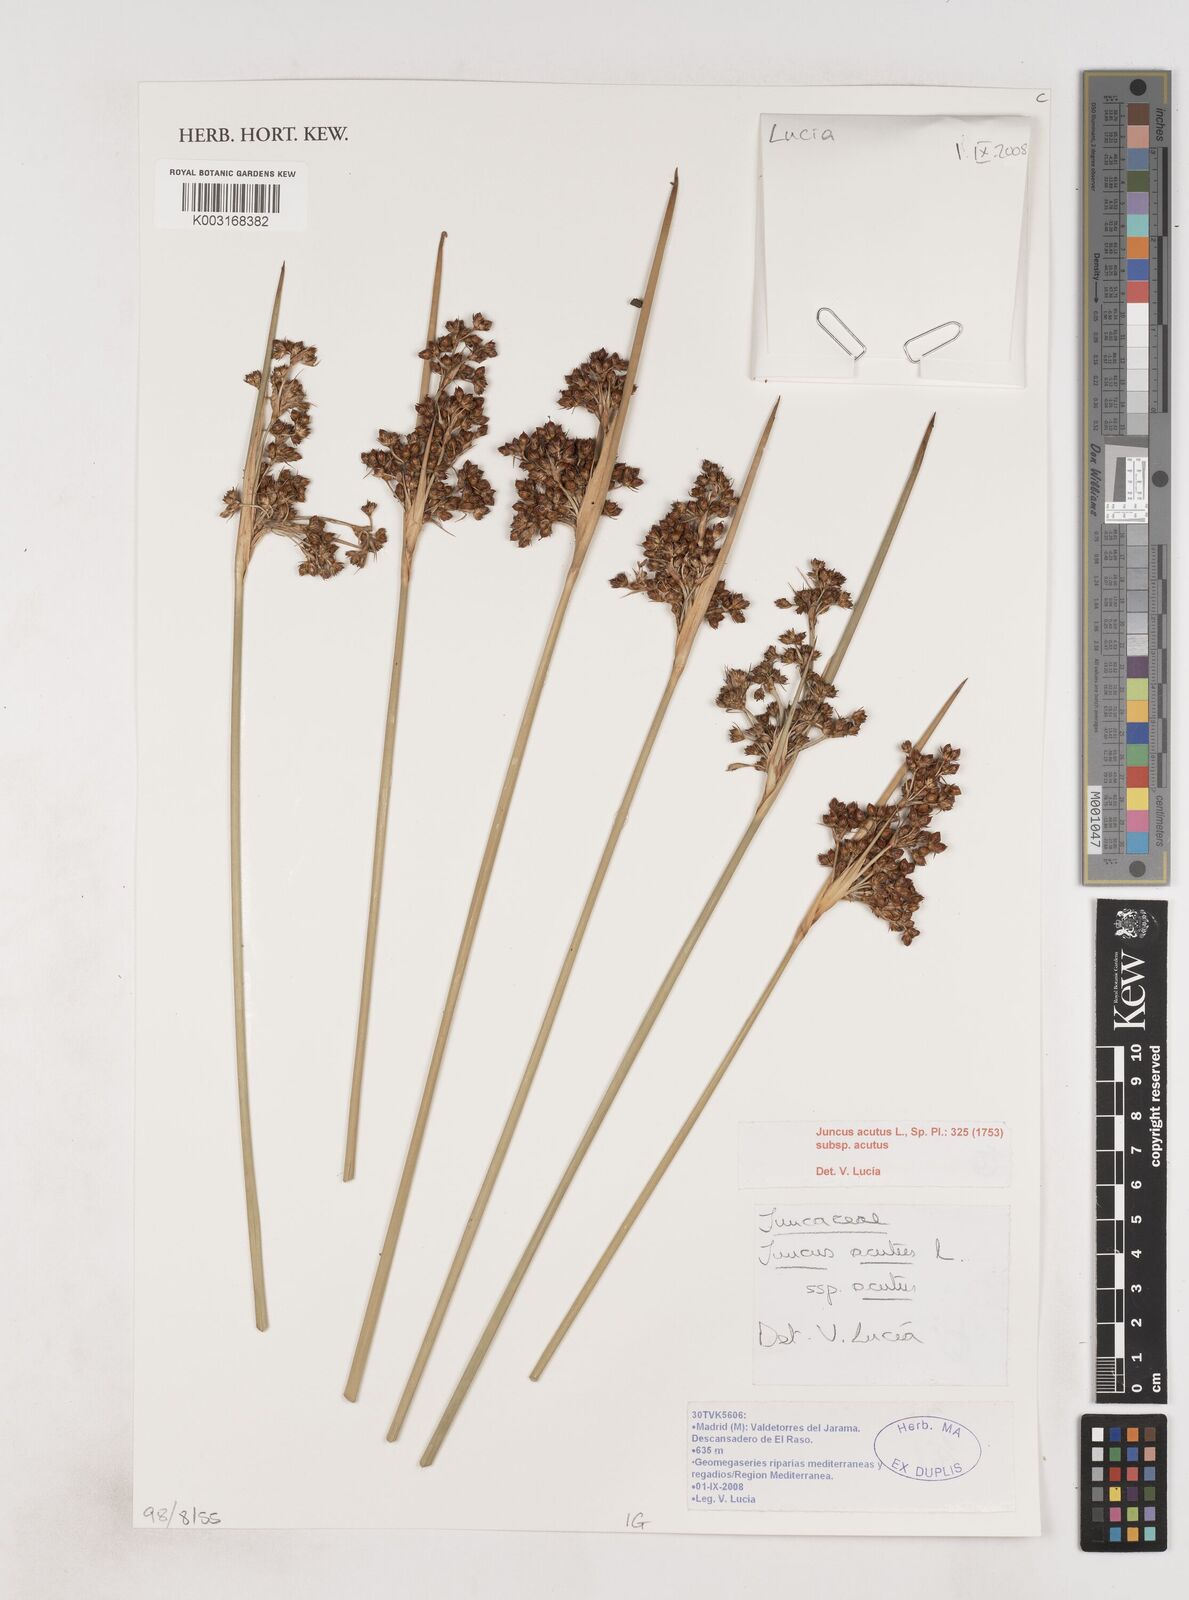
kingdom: Plantae
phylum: Tracheophyta
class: Liliopsida
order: Poales
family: Juncaceae
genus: Juncus
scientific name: Juncus acutus
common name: Sharp rush
